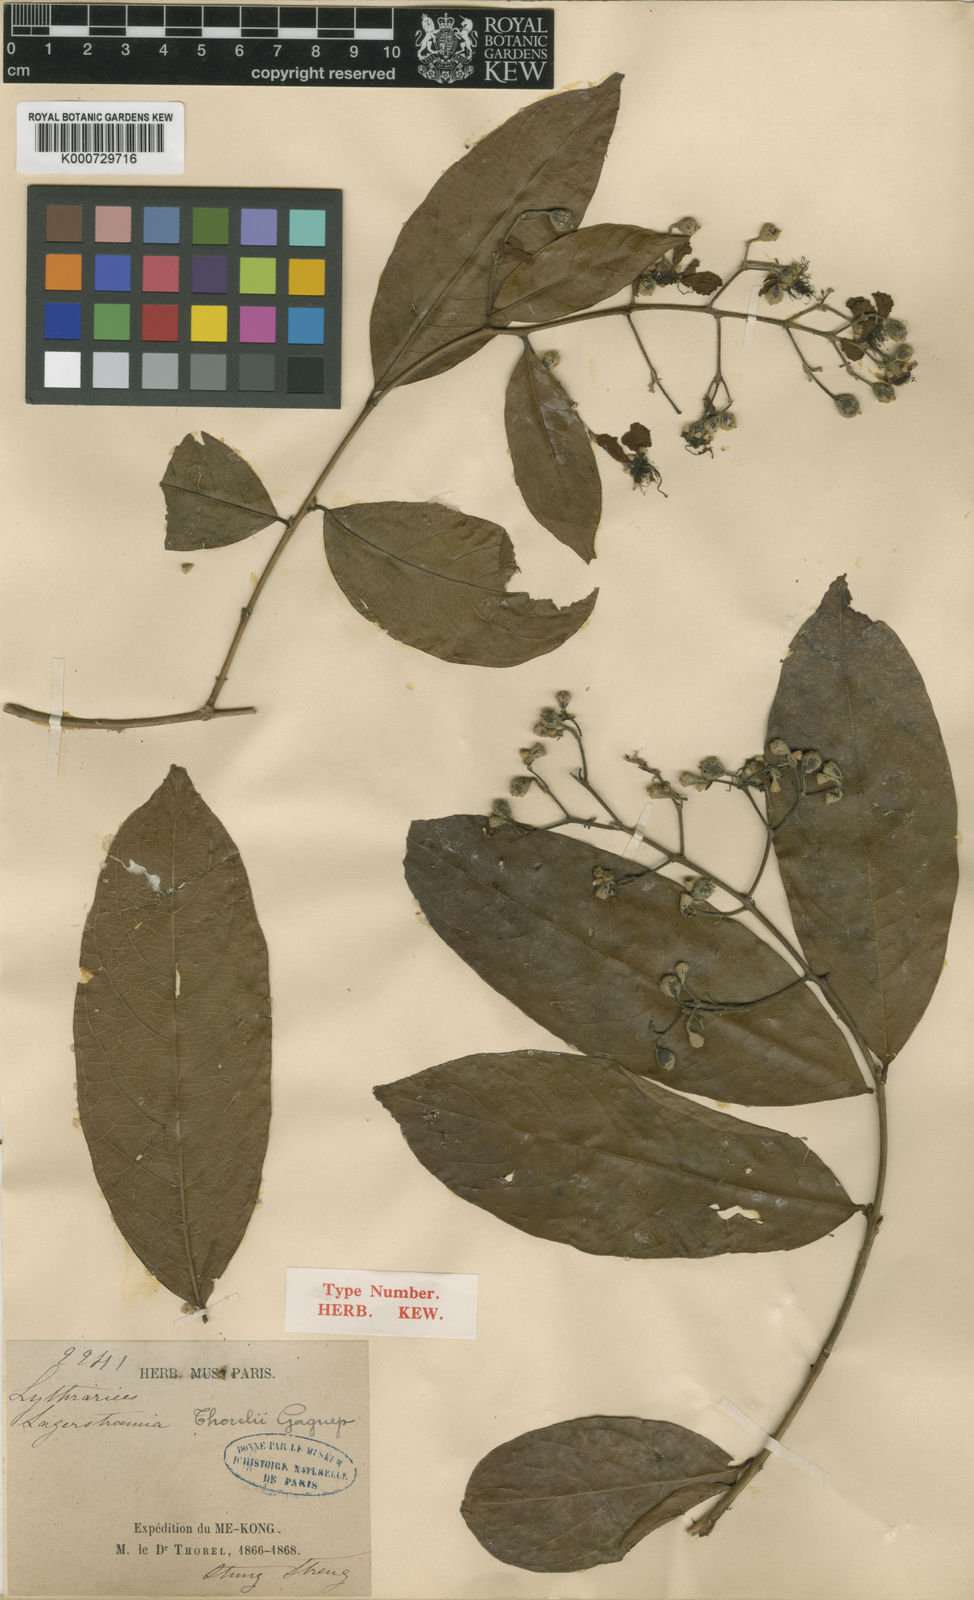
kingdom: Plantae
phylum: Tracheophyta
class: Magnoliopsida
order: Myrtales
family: Lythraceae
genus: Lagerstroemia
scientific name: Lagerstroemia
